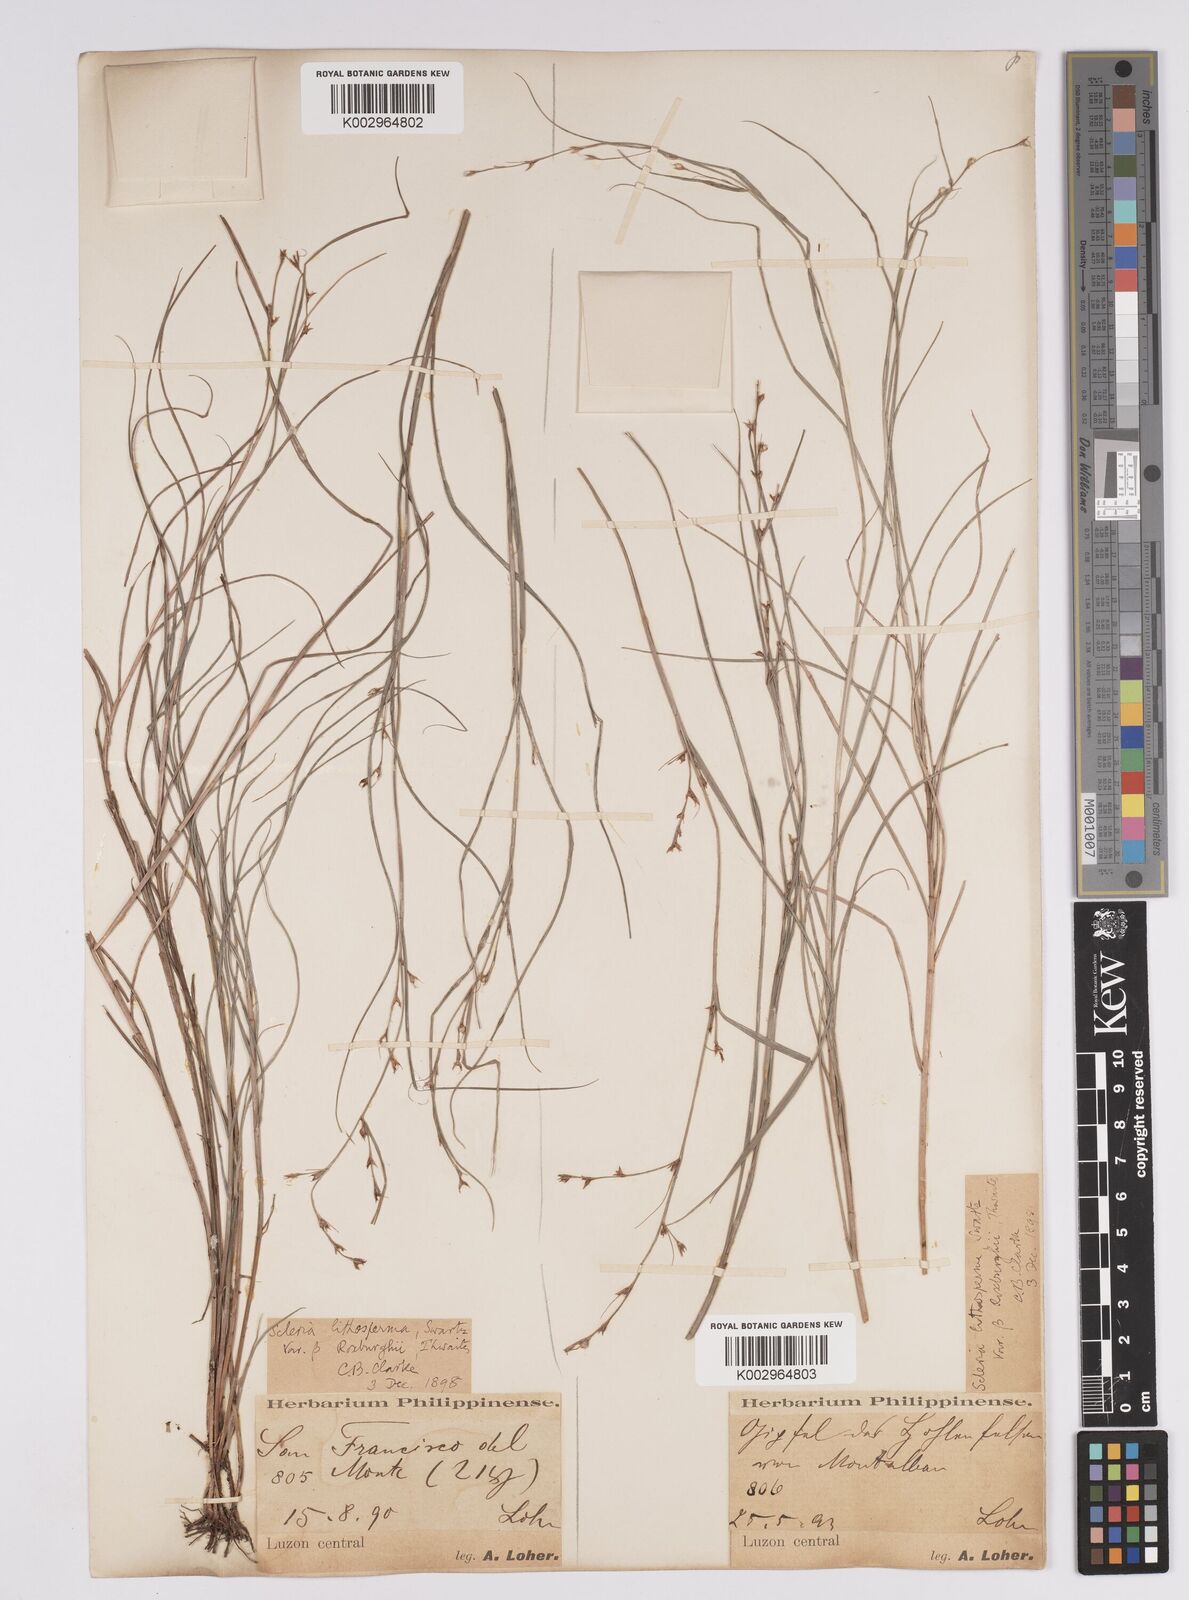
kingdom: Plantae
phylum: Tracheophyta
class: Liliopsida
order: Poales
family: Cyperaceae
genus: Scleria
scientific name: Scleria lithosperma
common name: Florida keys nut-rush
